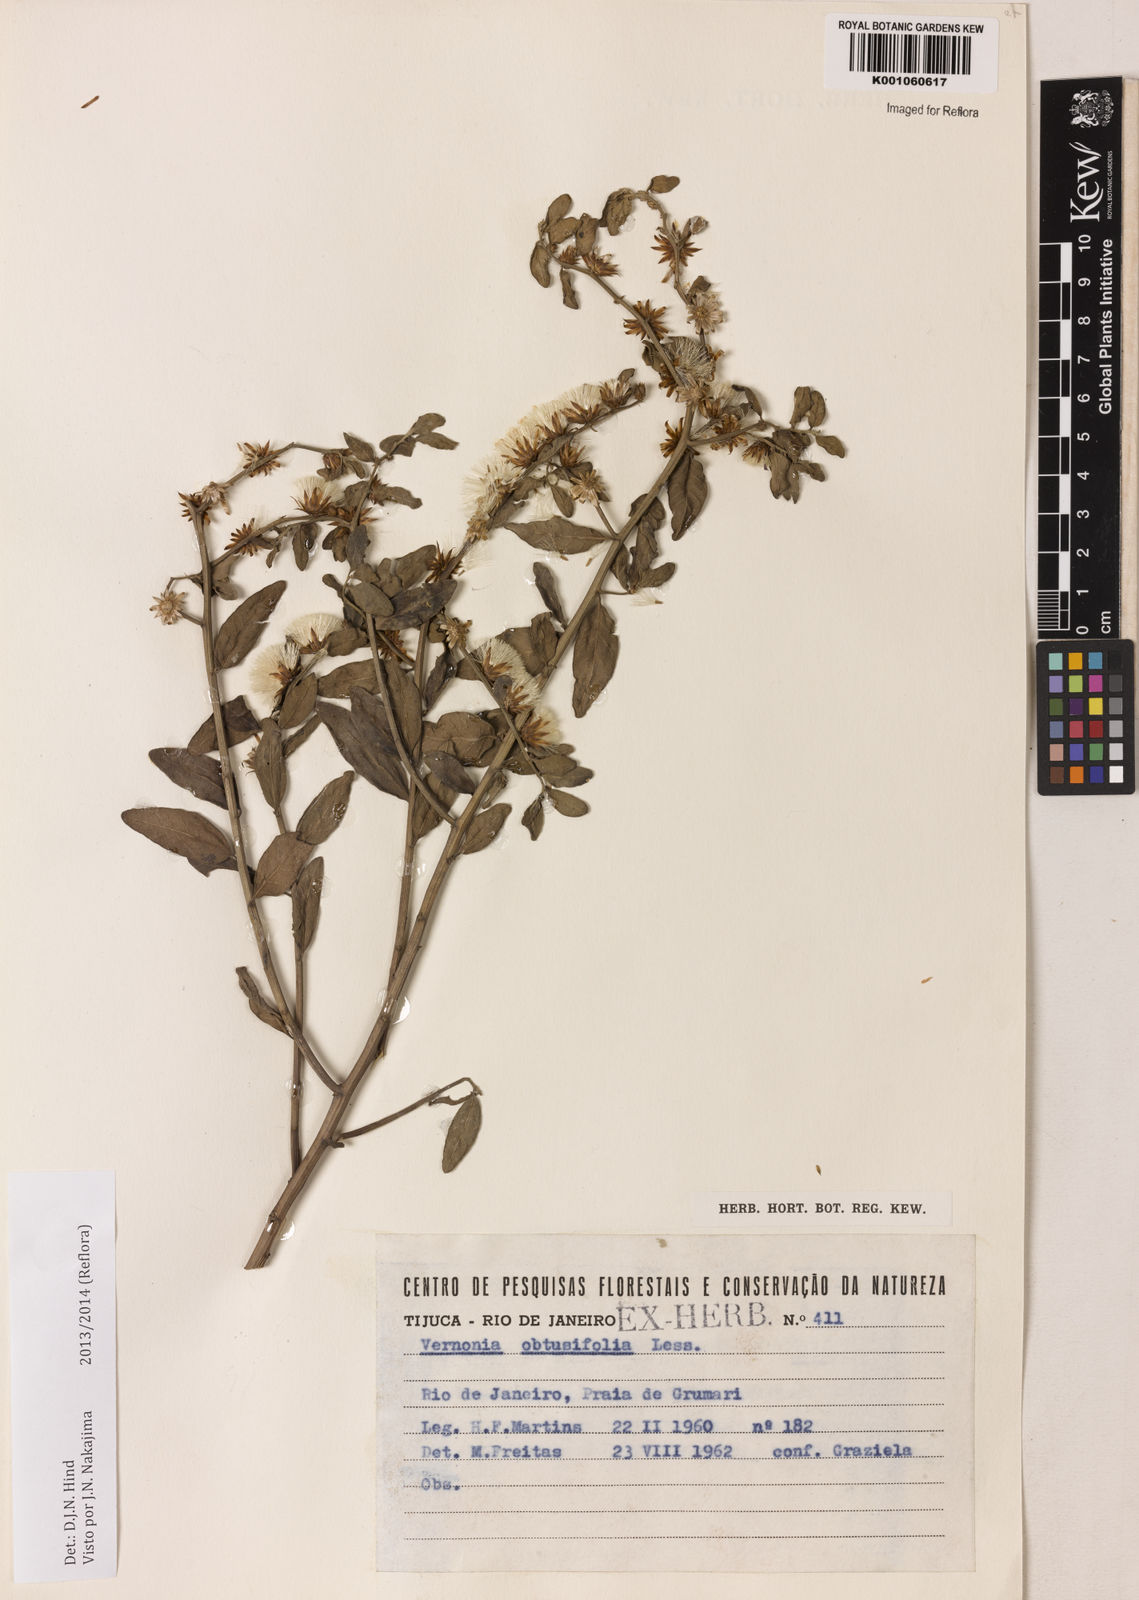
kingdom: Plantae
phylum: Tracheophyta
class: Magnoliopsida
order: Asterales
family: Asteraceae
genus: Lepidaploa
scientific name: Lepidaploa obtusifolia
